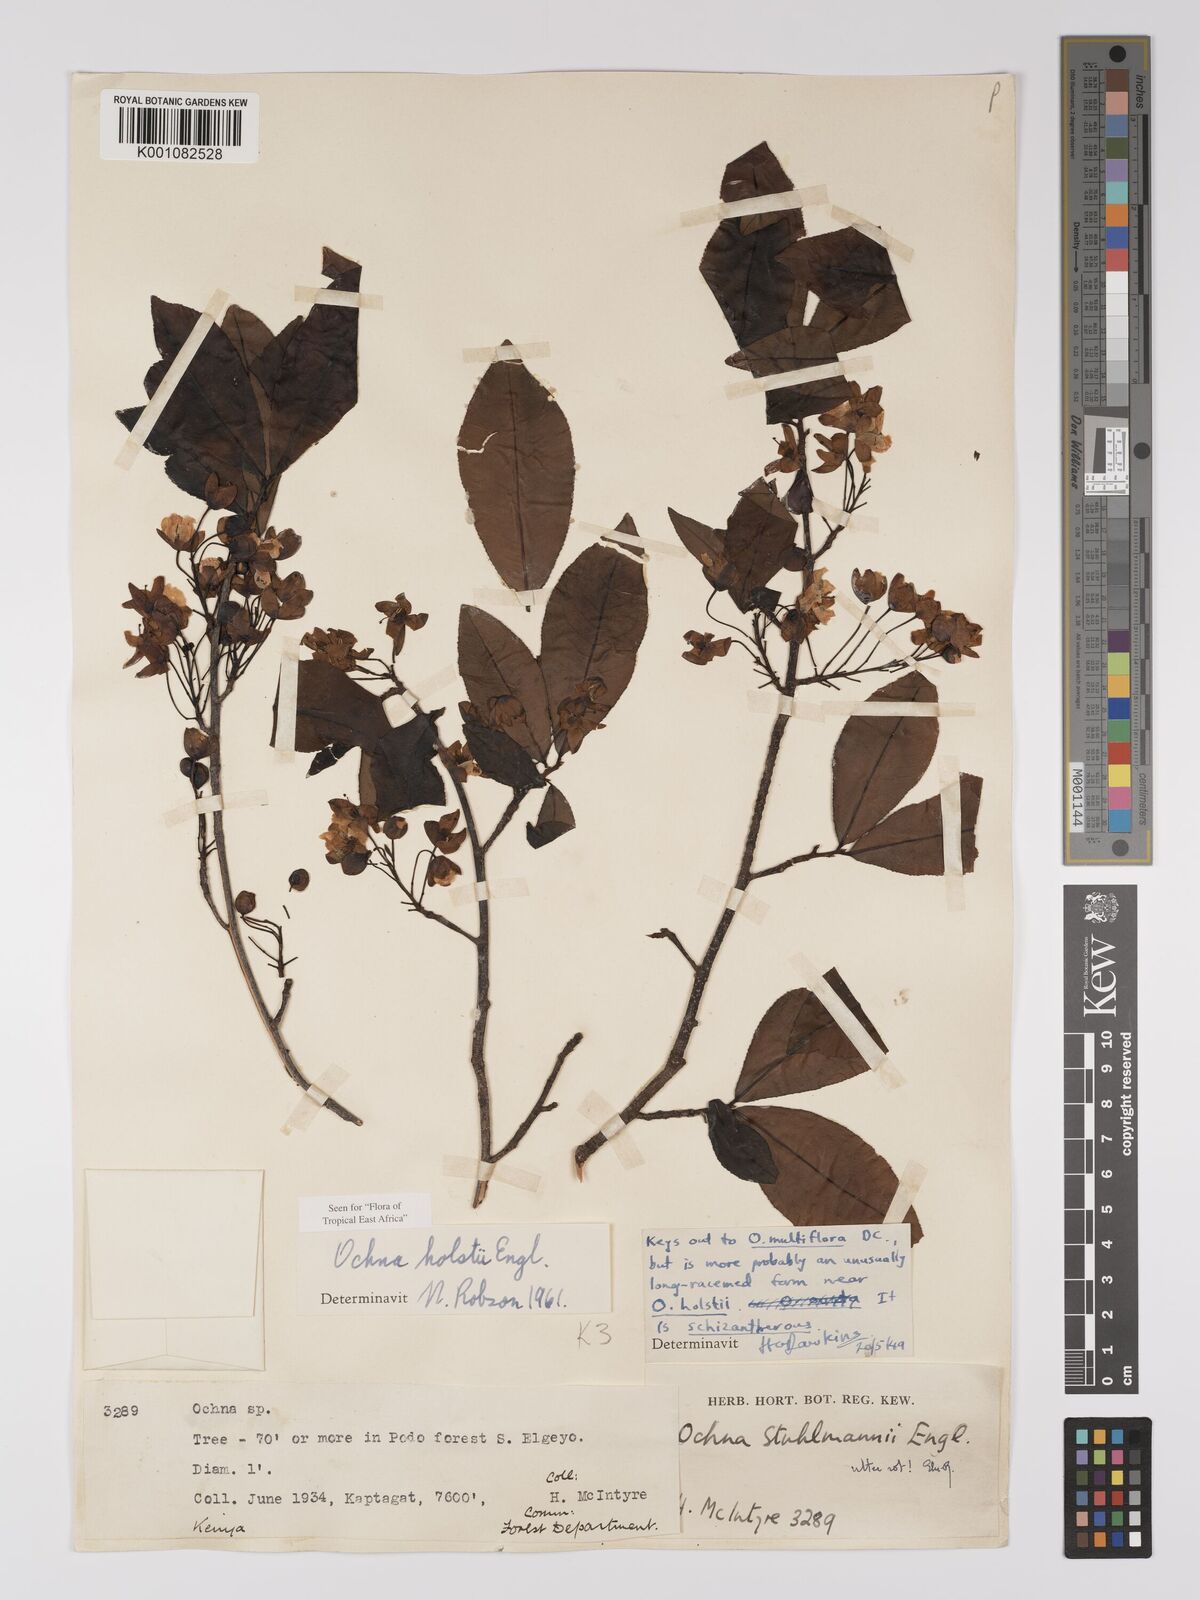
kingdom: Plantae
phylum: Tracheophyta
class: Magnoliopsida
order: Malpighiales
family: Ochnaceae
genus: Ochna
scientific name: Ochna holstii
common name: Red ironwood
